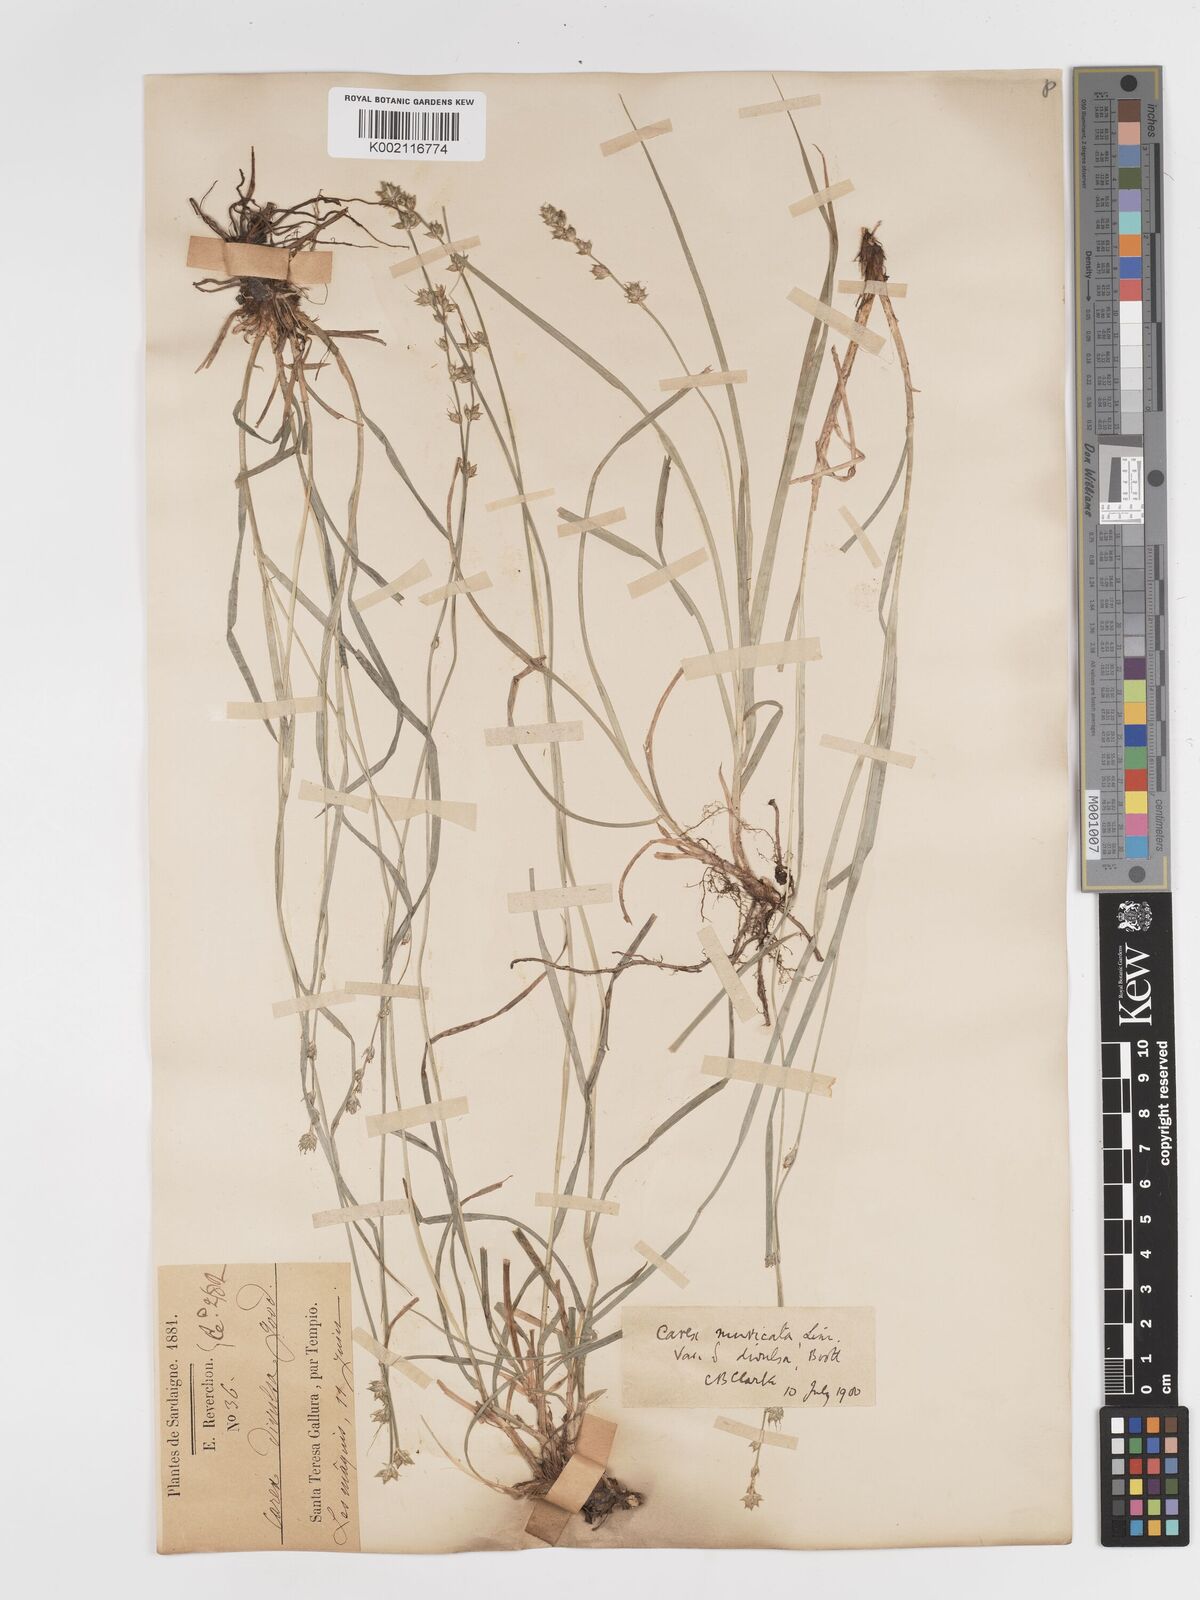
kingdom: Plantae
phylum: Tracheophyta
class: Liliopsida
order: Poales
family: Cyperaceae
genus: Carex
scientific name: Carex divulsa
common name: Grassland sedge
